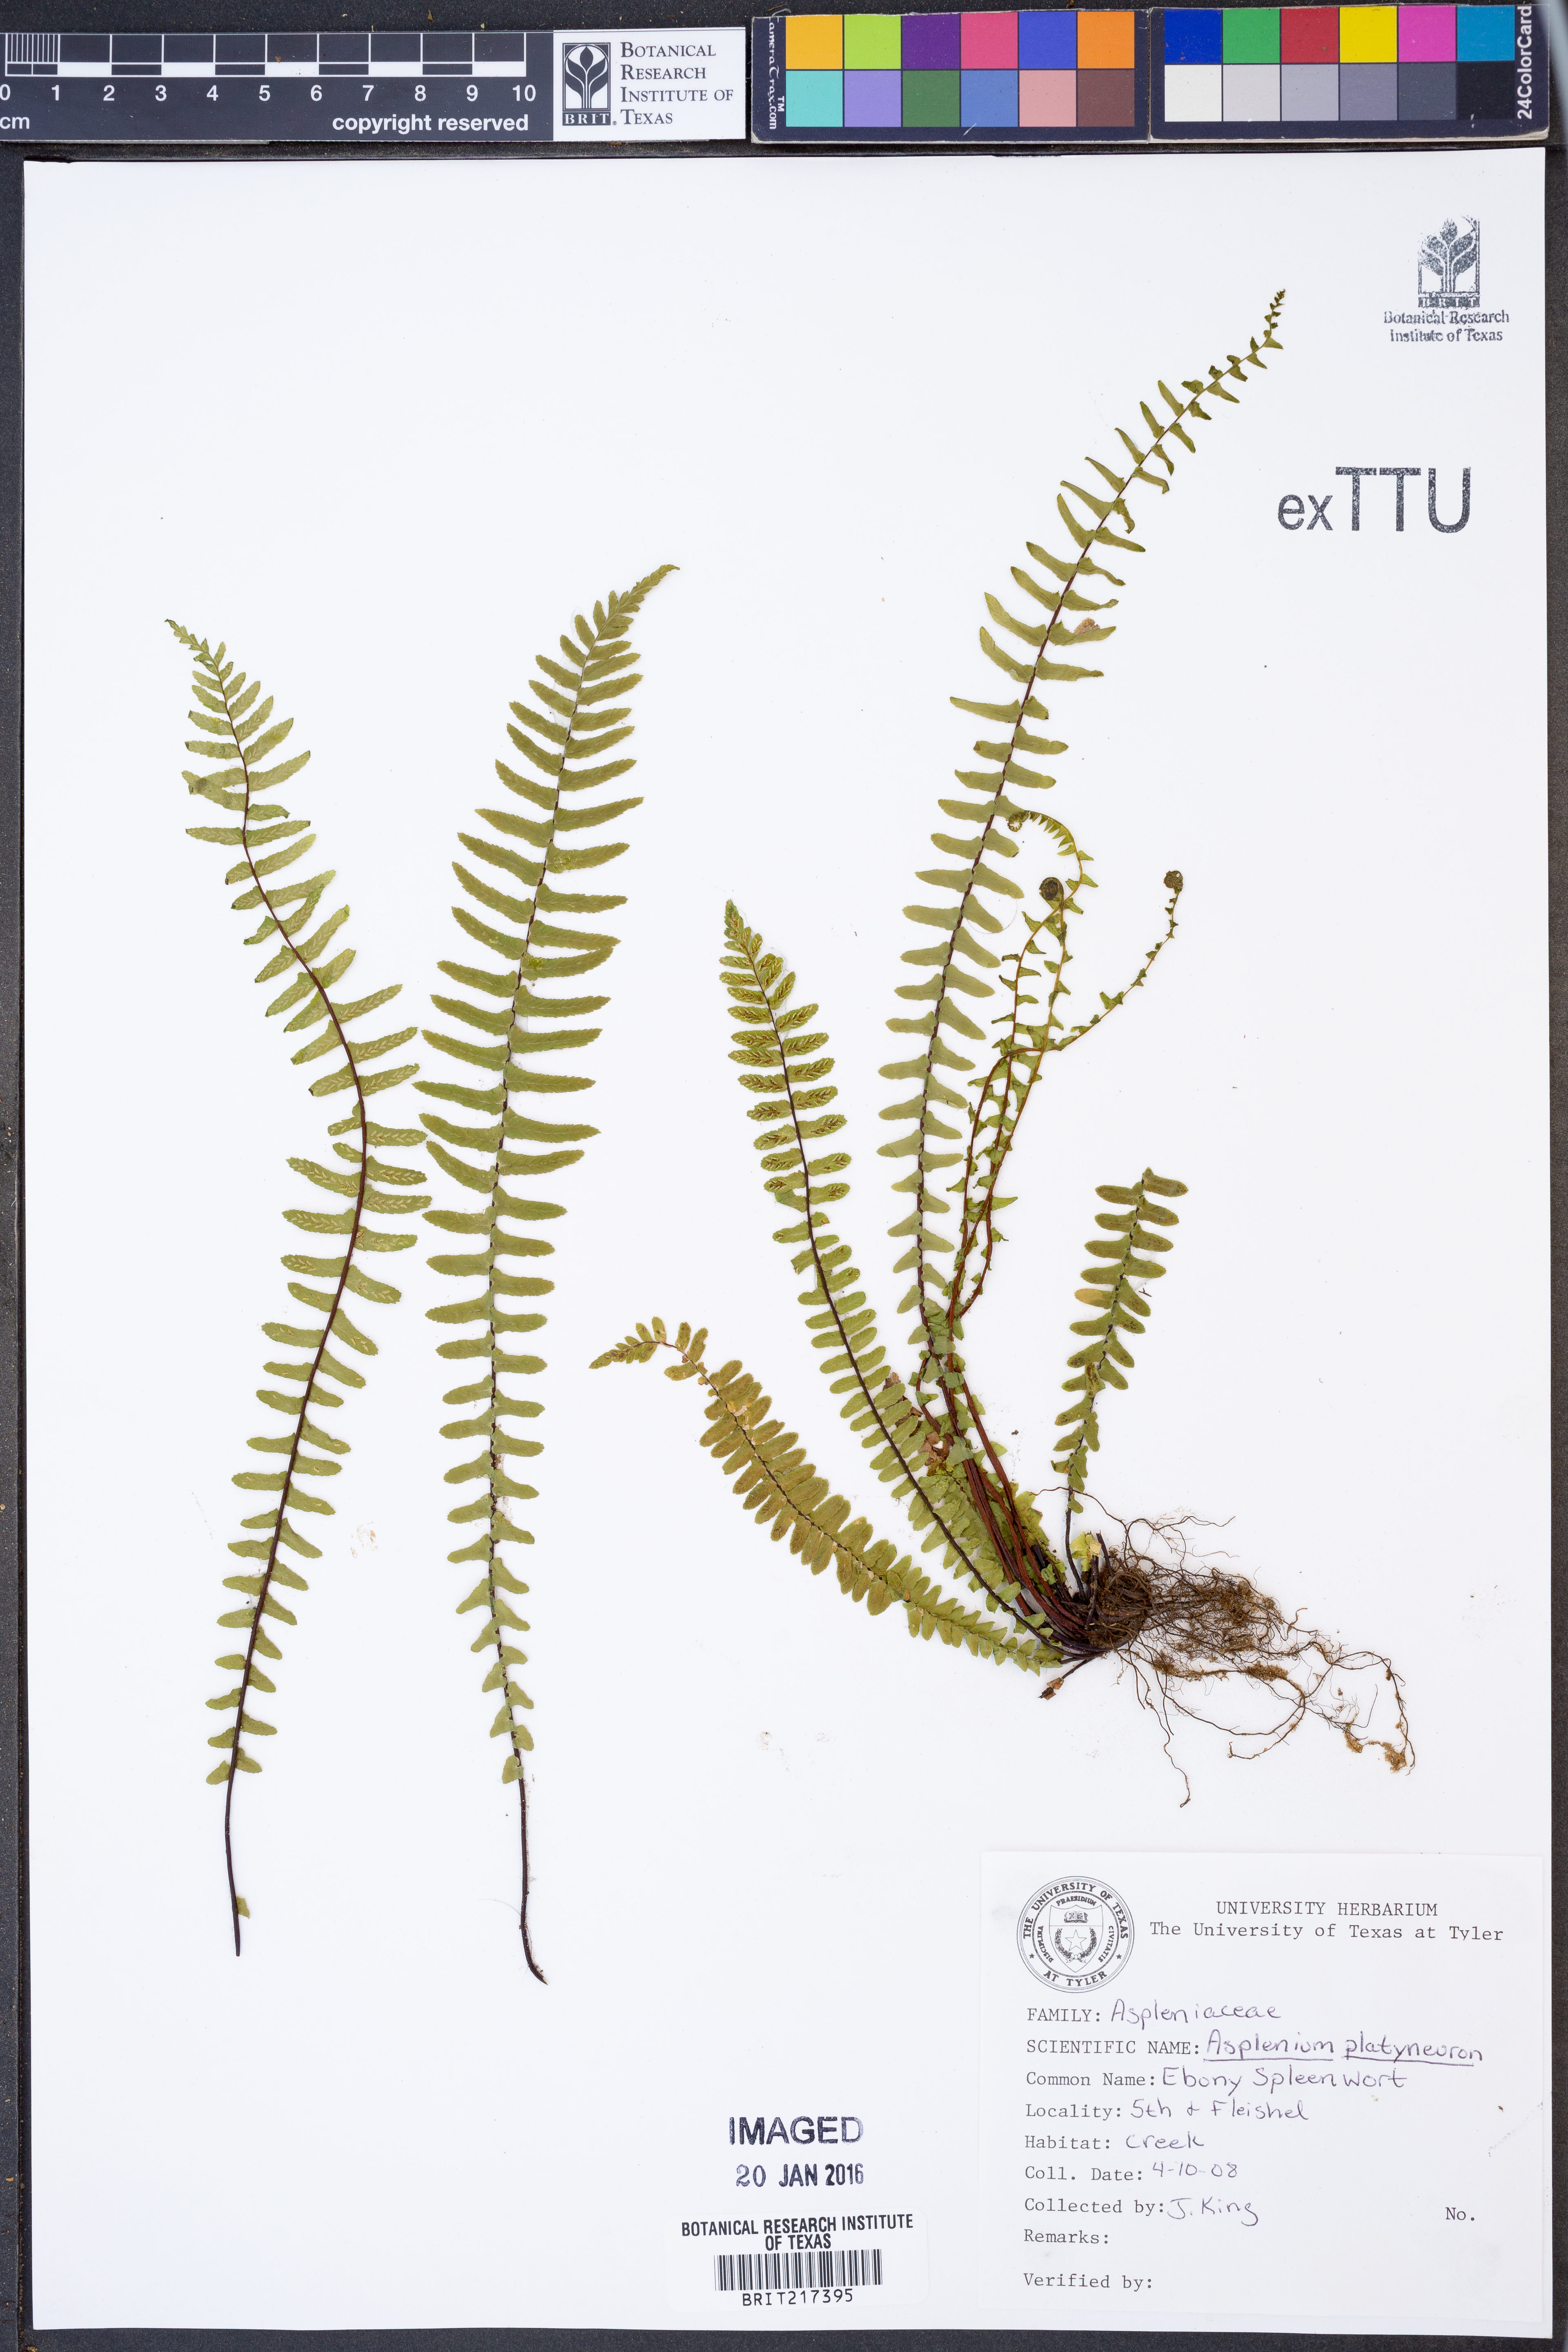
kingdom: Plantae
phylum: Tracheophyta
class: Polypodiopsida
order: Polypodiales
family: Aspleniaceae
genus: Asplenium
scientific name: Asplenium platyneuron
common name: Ebony spleenwort
